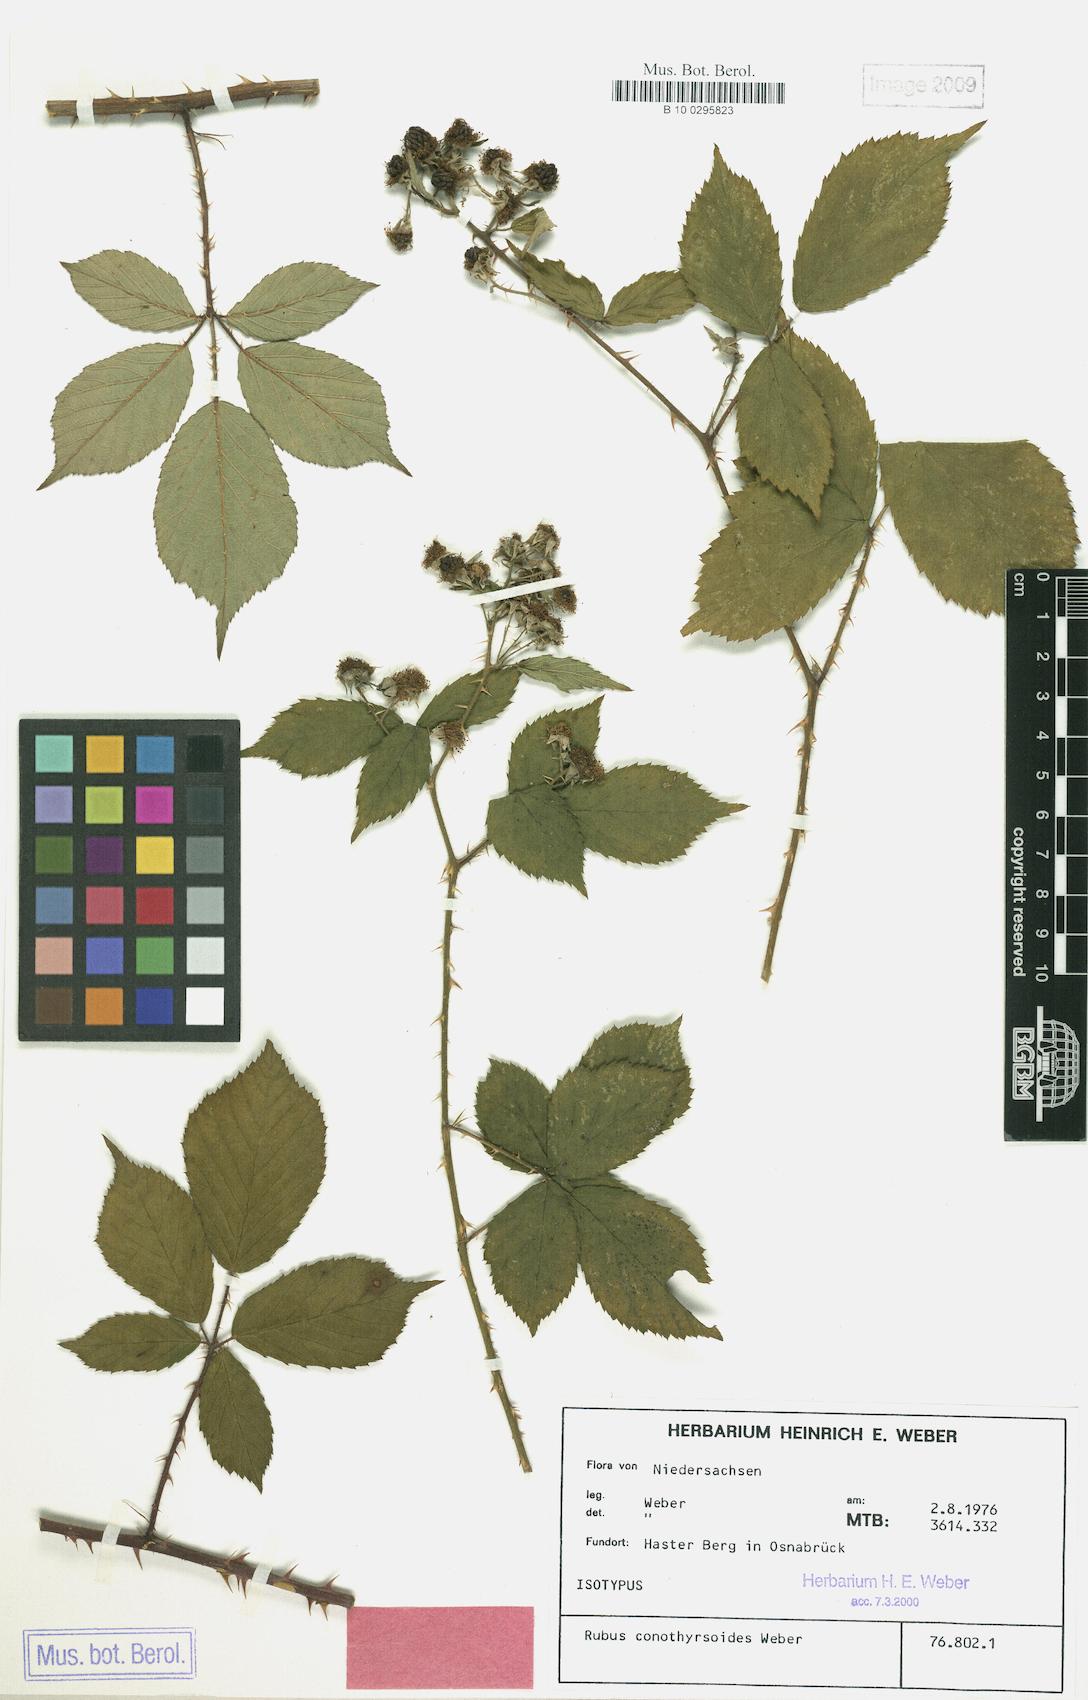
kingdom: Plantae
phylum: Tracheophyta
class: Magnoliopsida
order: Rosales
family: Rosaceae
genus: Rubus
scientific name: Rubus conothyrsoides
